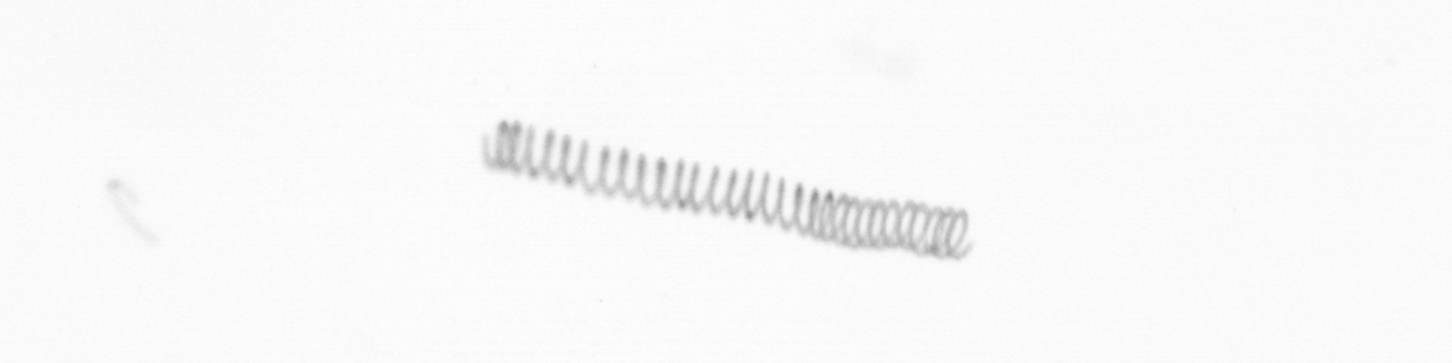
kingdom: Chromista
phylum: Ochrophyta
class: Bacillariophyceae
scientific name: Bacillariophyceae
